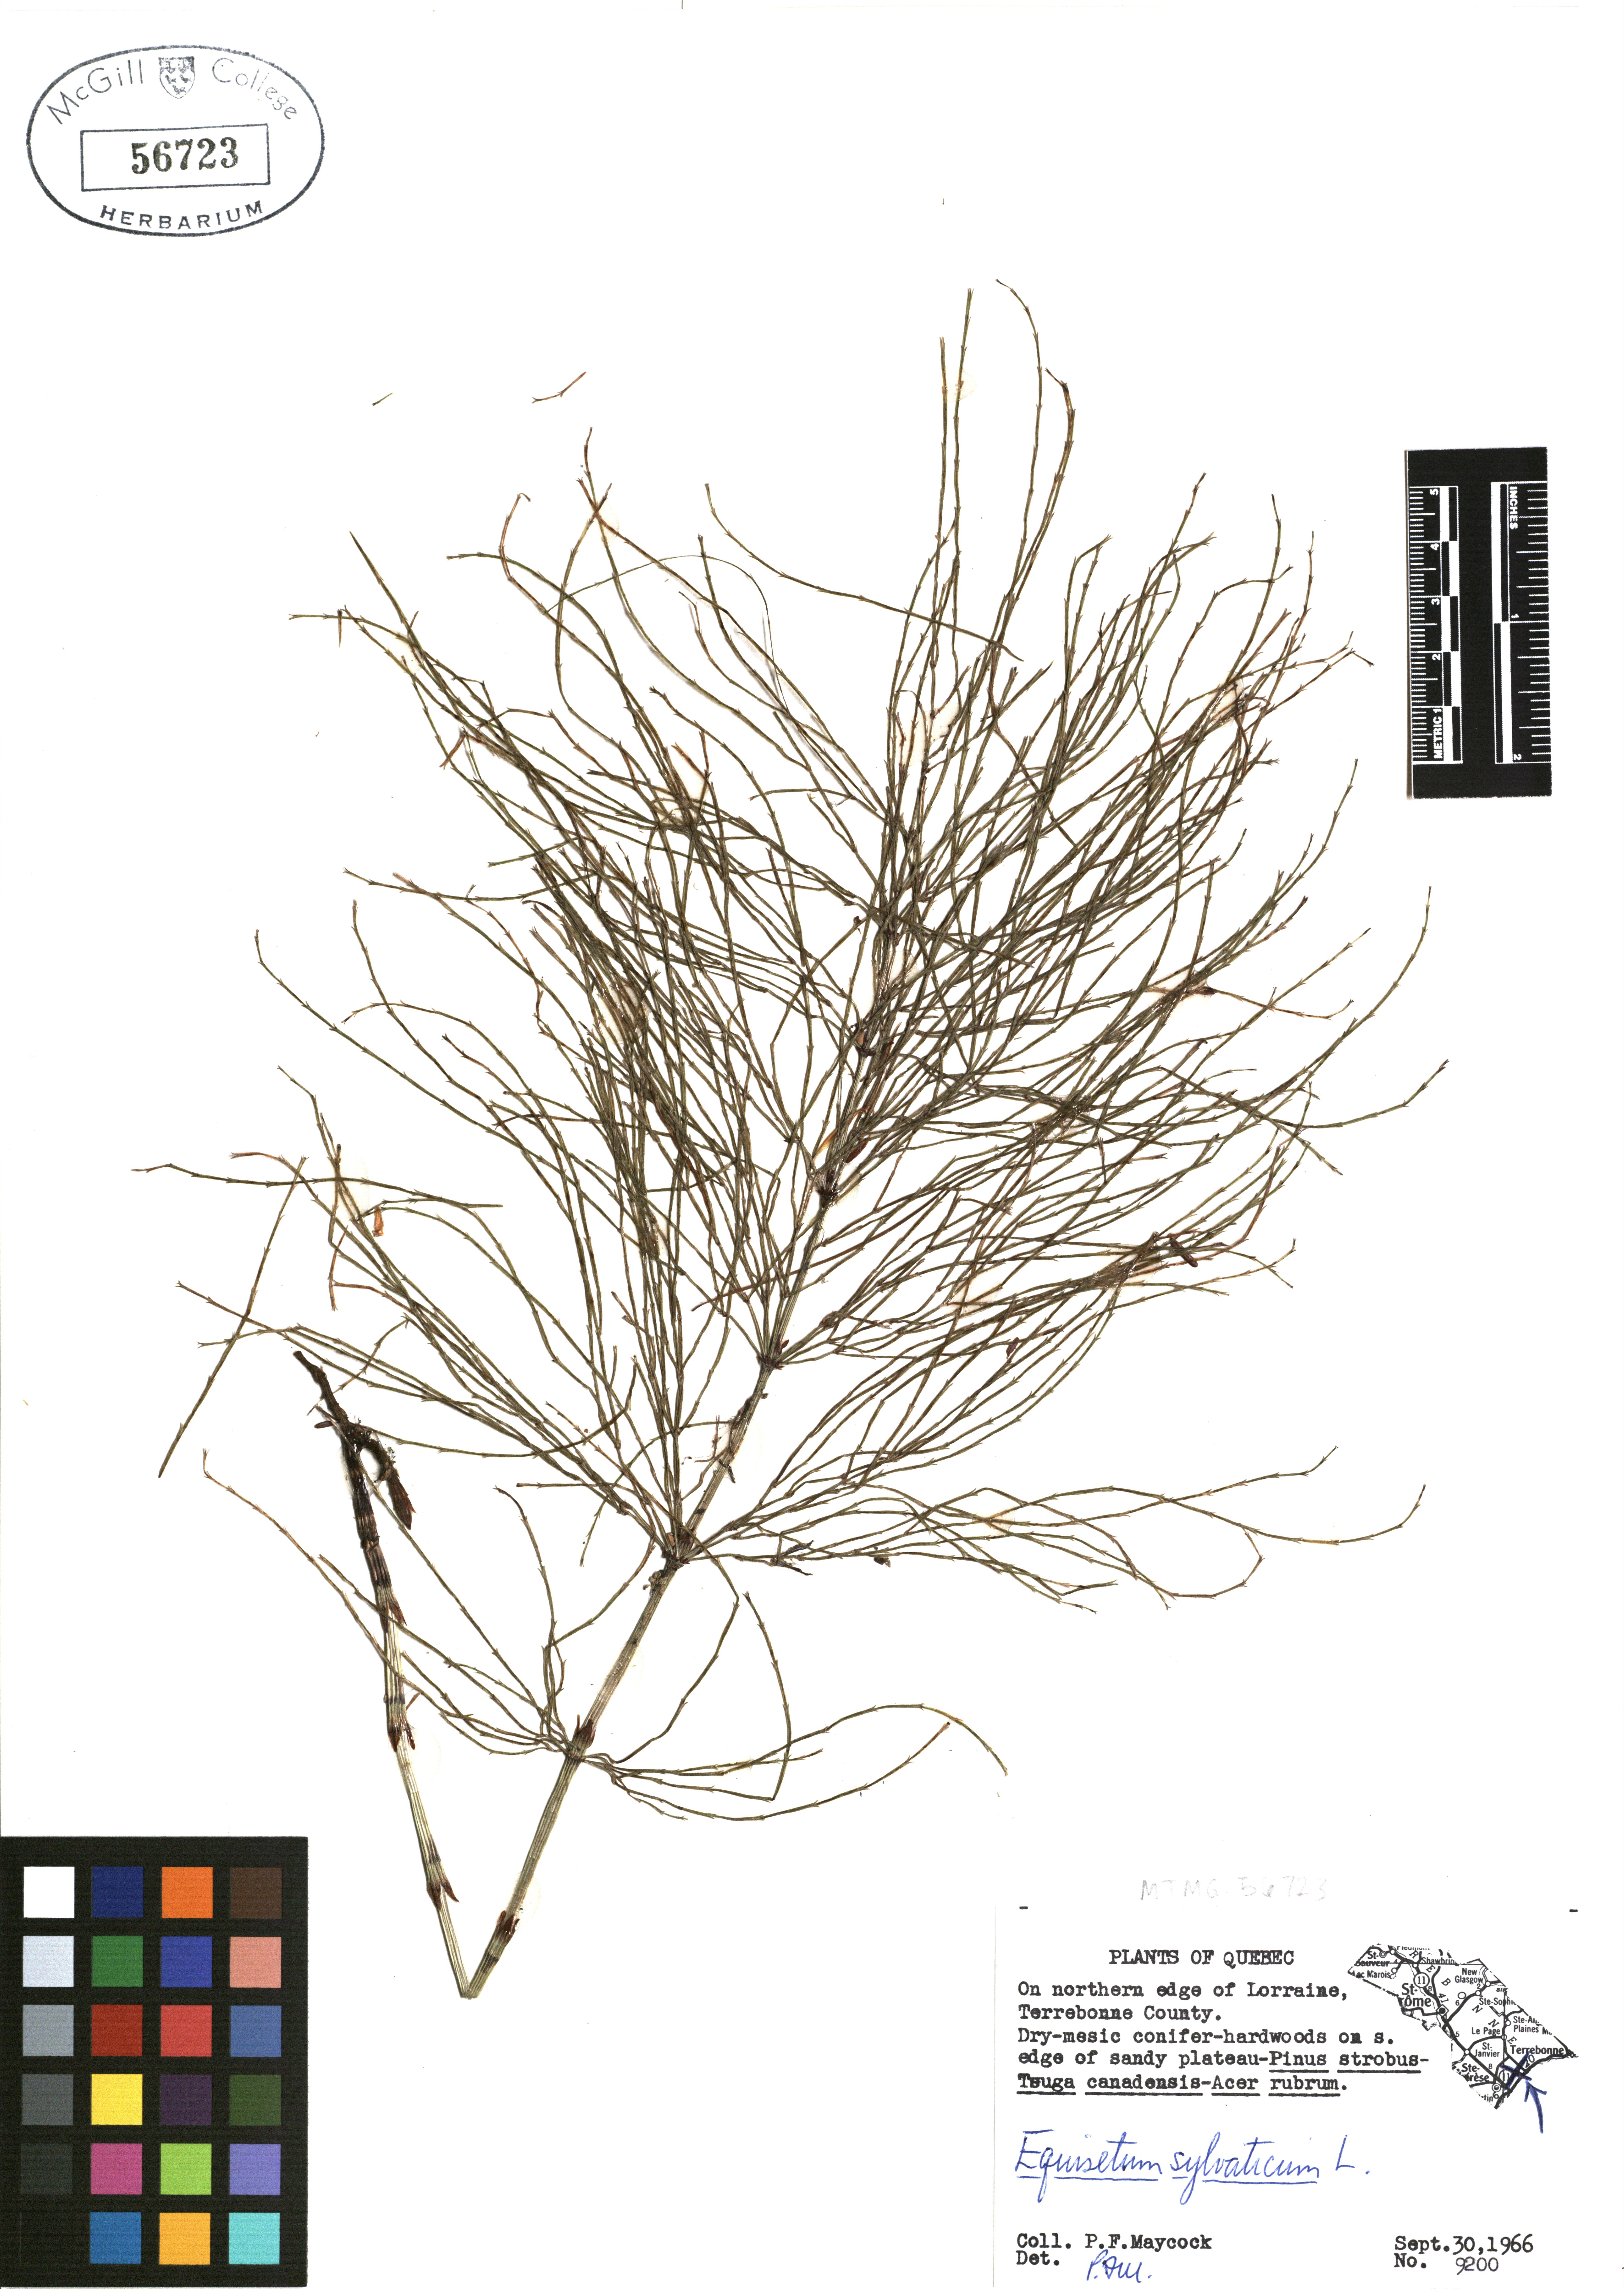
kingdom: Plantae
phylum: Tracheophyta
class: Polypodiopsida
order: Equisetales
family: Equisetaceae
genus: Equisetum
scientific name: Equisetum sylvaticum
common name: Wood horsetail
